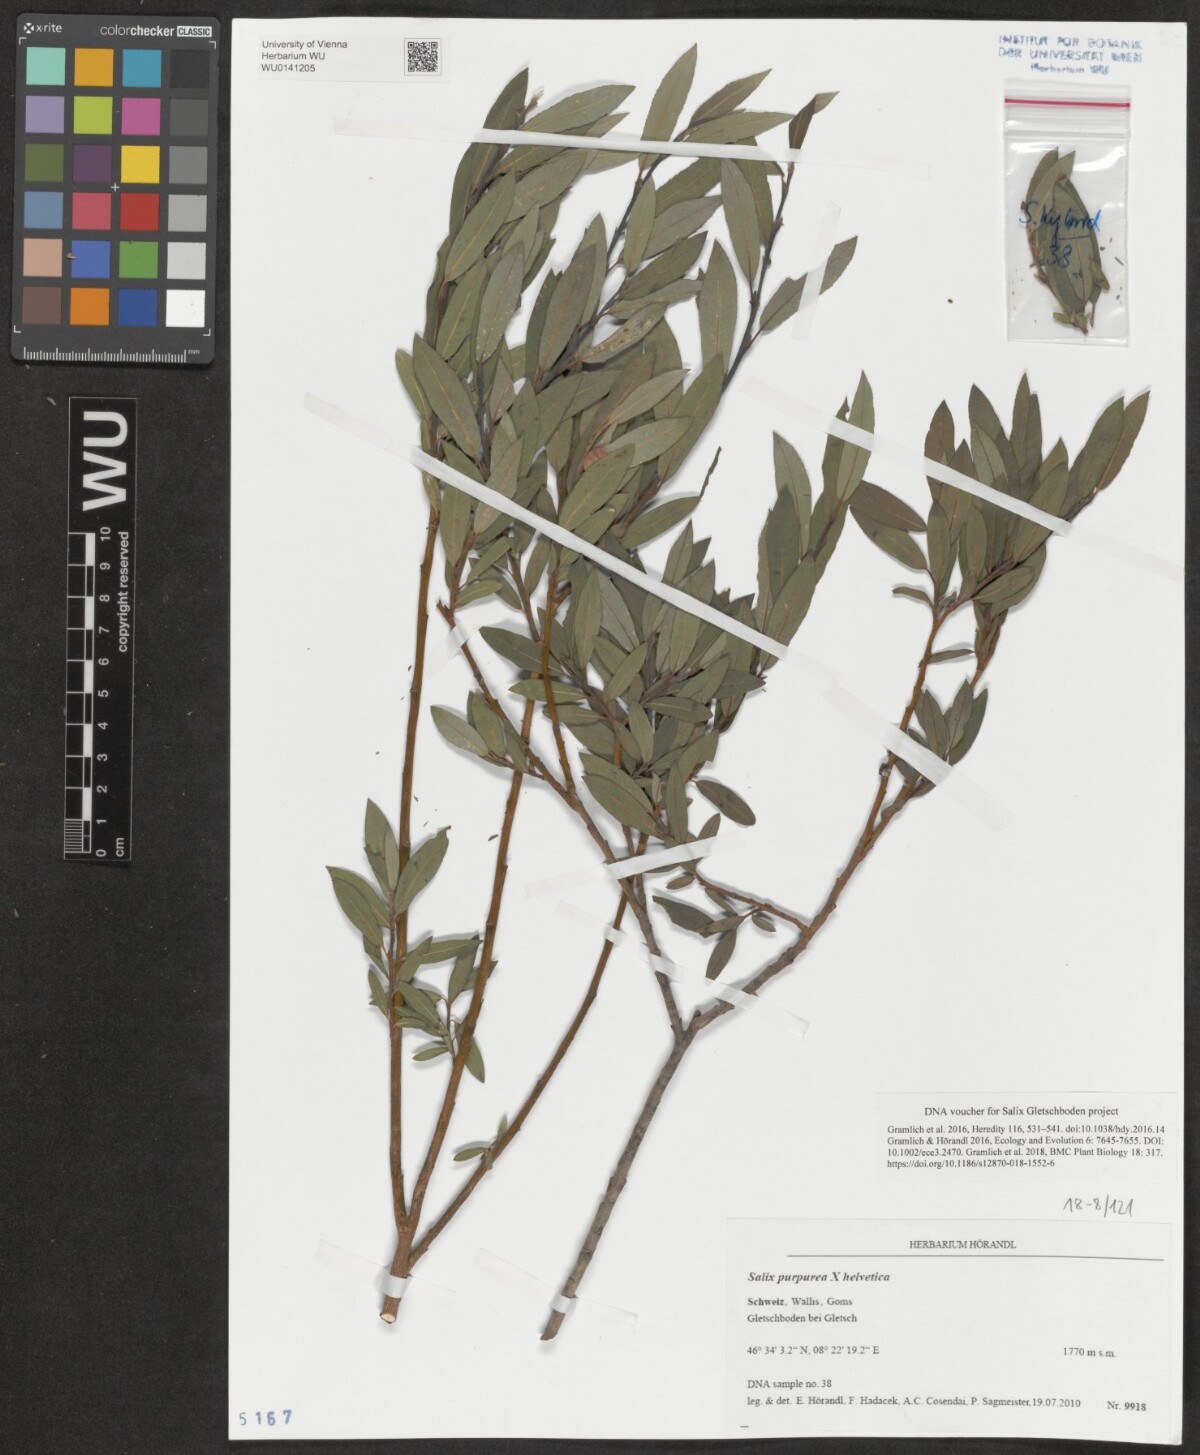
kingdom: Plantae
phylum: Tracheophyta
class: Magnoliopsida
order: Malpighiales
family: Salicaceae
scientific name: Salicaceae
